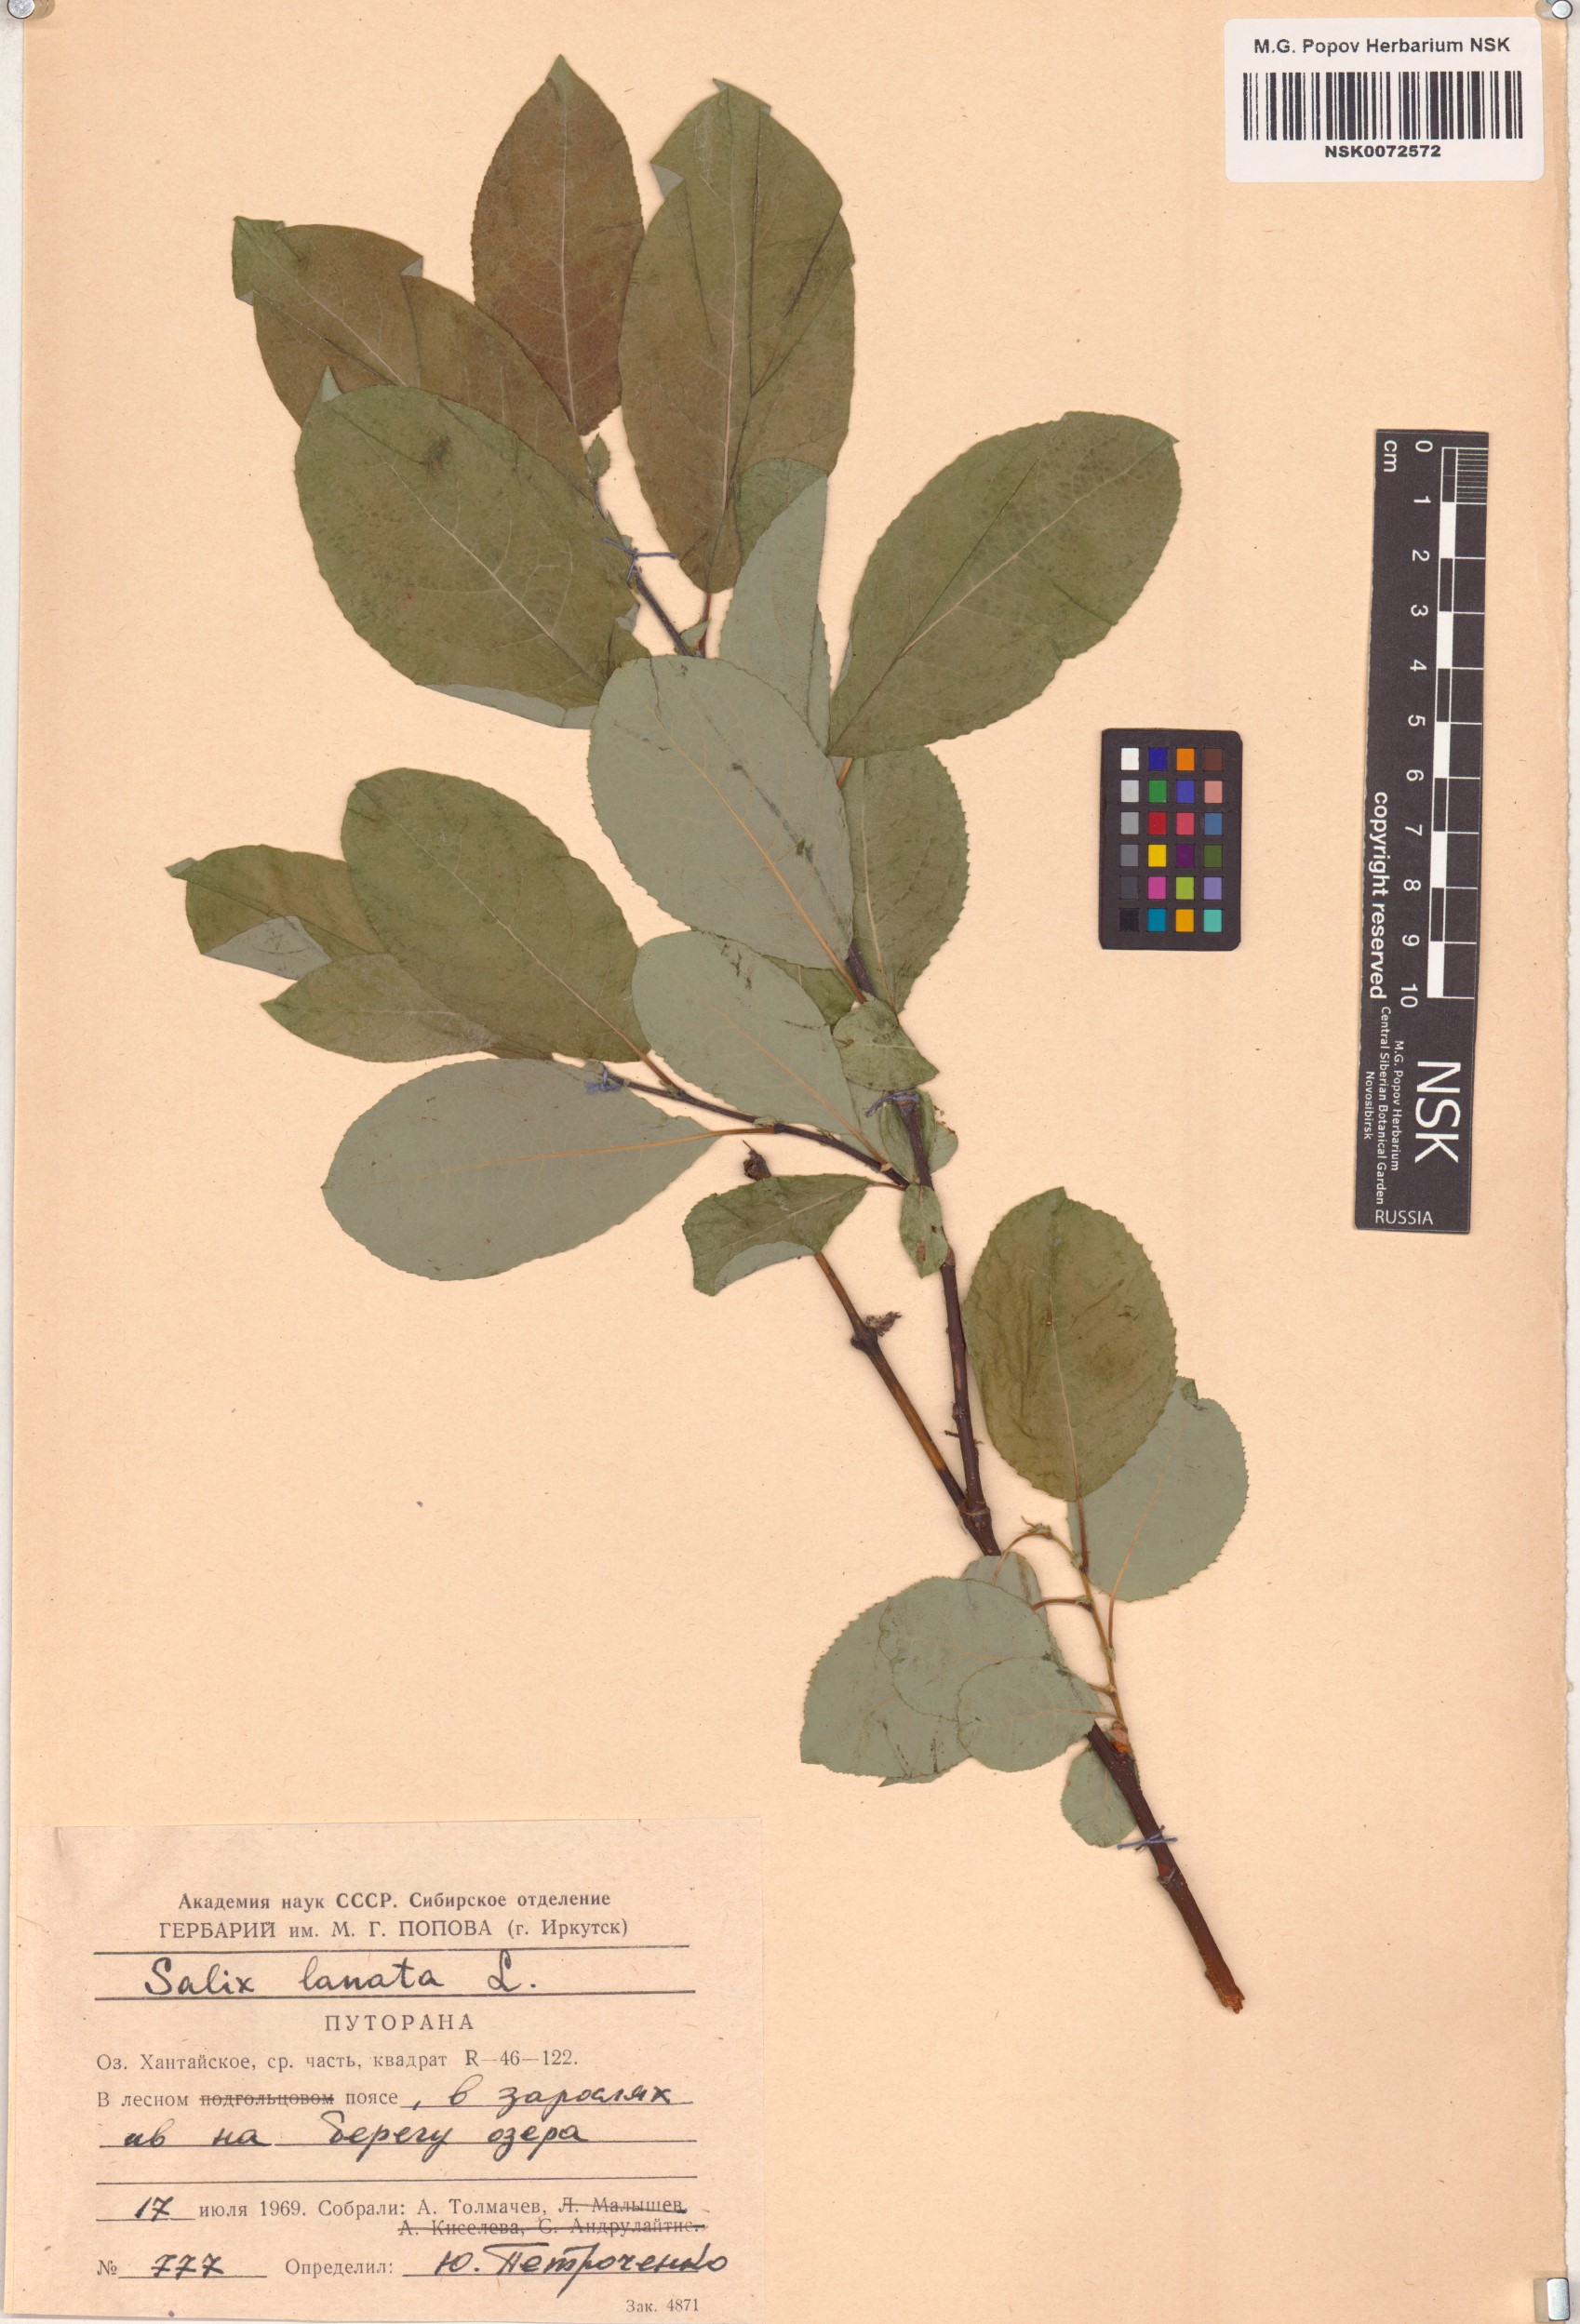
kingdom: Plantae
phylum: Tracheophyta
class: Magnoliopsida
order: Malpighiales
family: Salicaceae
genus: Salix
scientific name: Salix lanata
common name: Woolly willow
